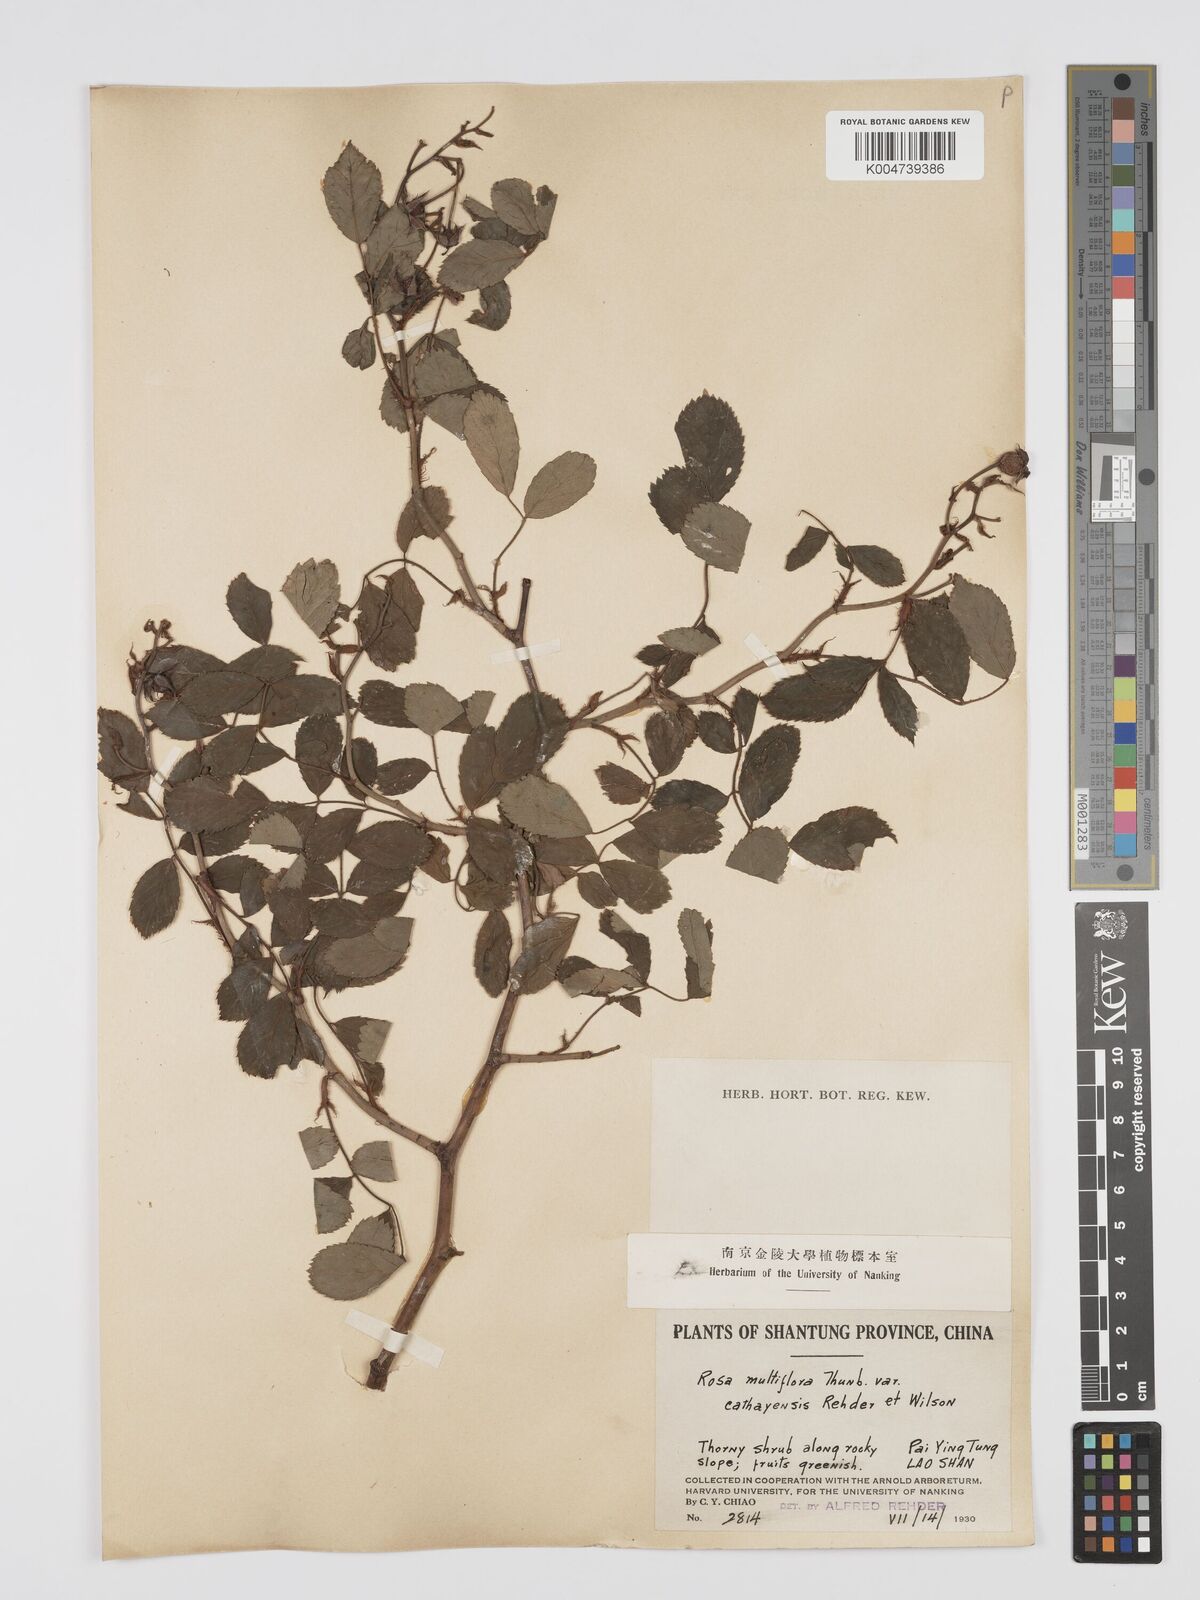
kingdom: Plantae
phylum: Tracheophyta
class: Magnoliopsida
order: Rosales
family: Rosaceae
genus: Rosa
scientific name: Rosa multiflora
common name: Multiflora rose
